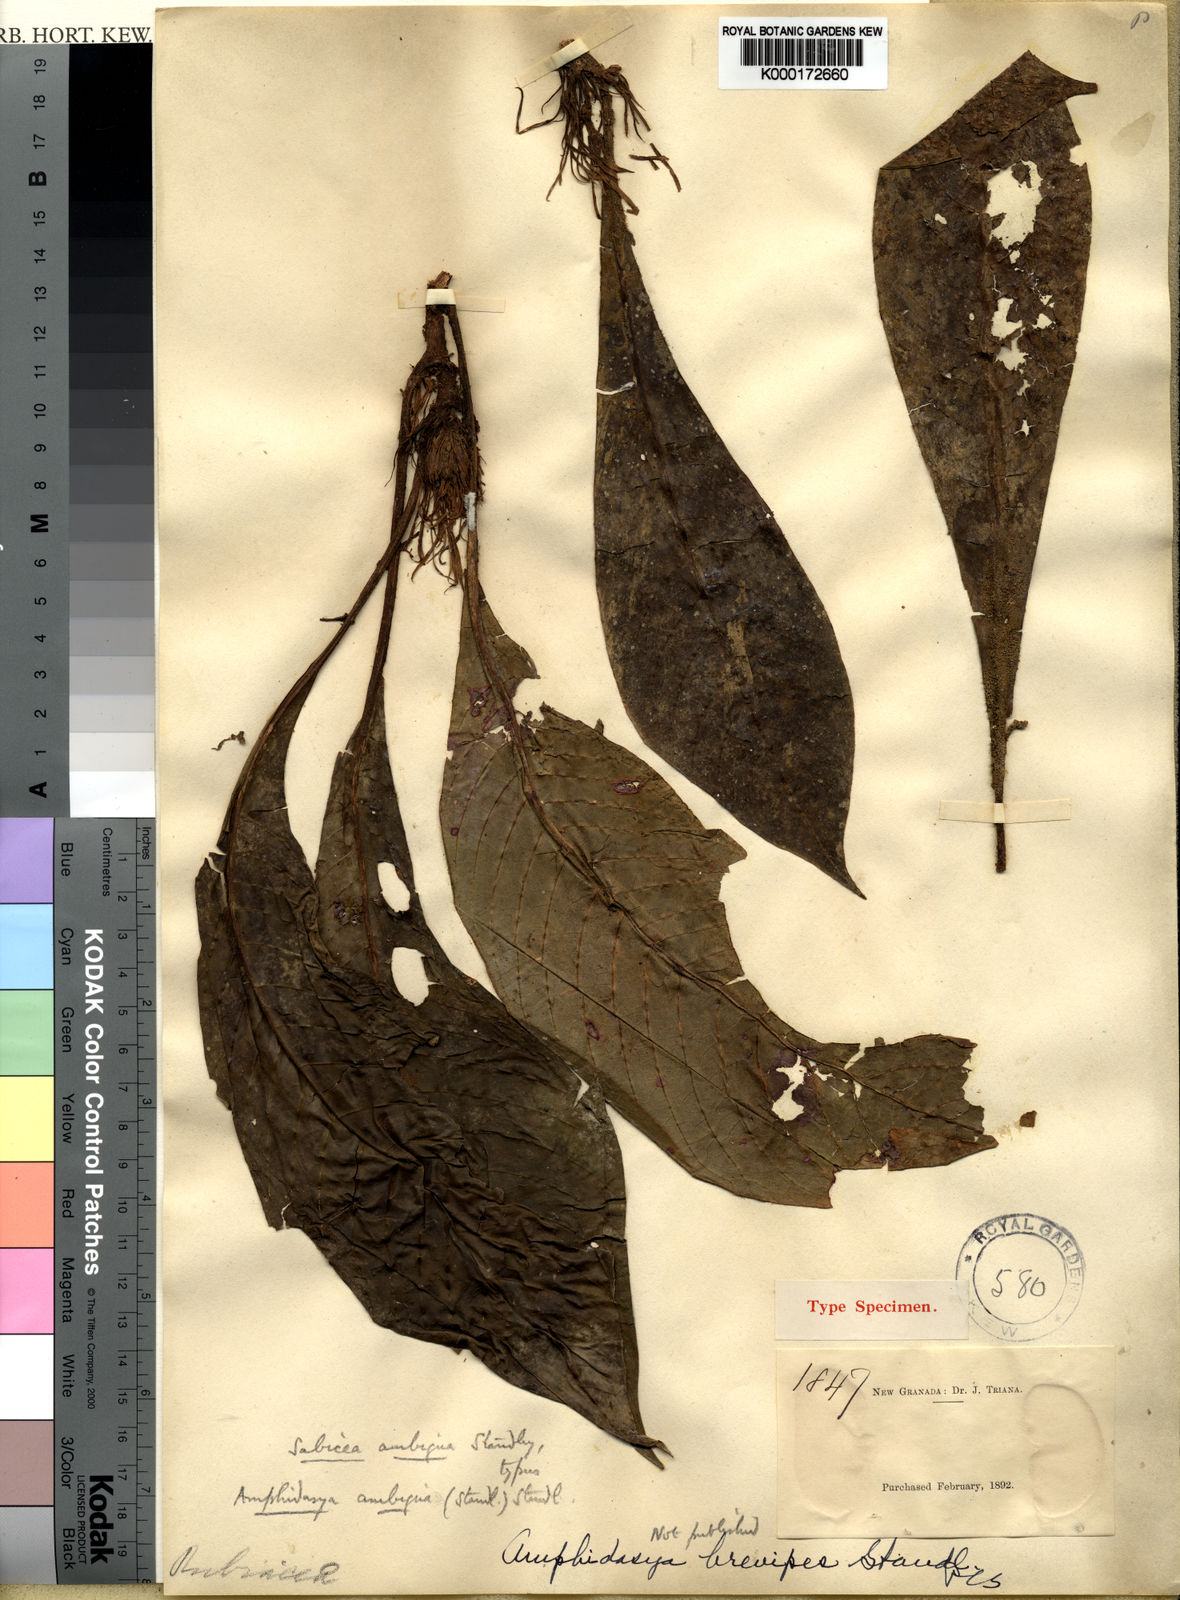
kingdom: Plantae
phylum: Tracheophyta
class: Magnoliopsida
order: Gentianales
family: Rubiaceae
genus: Amphidasya
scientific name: Amphidasya ambigua
